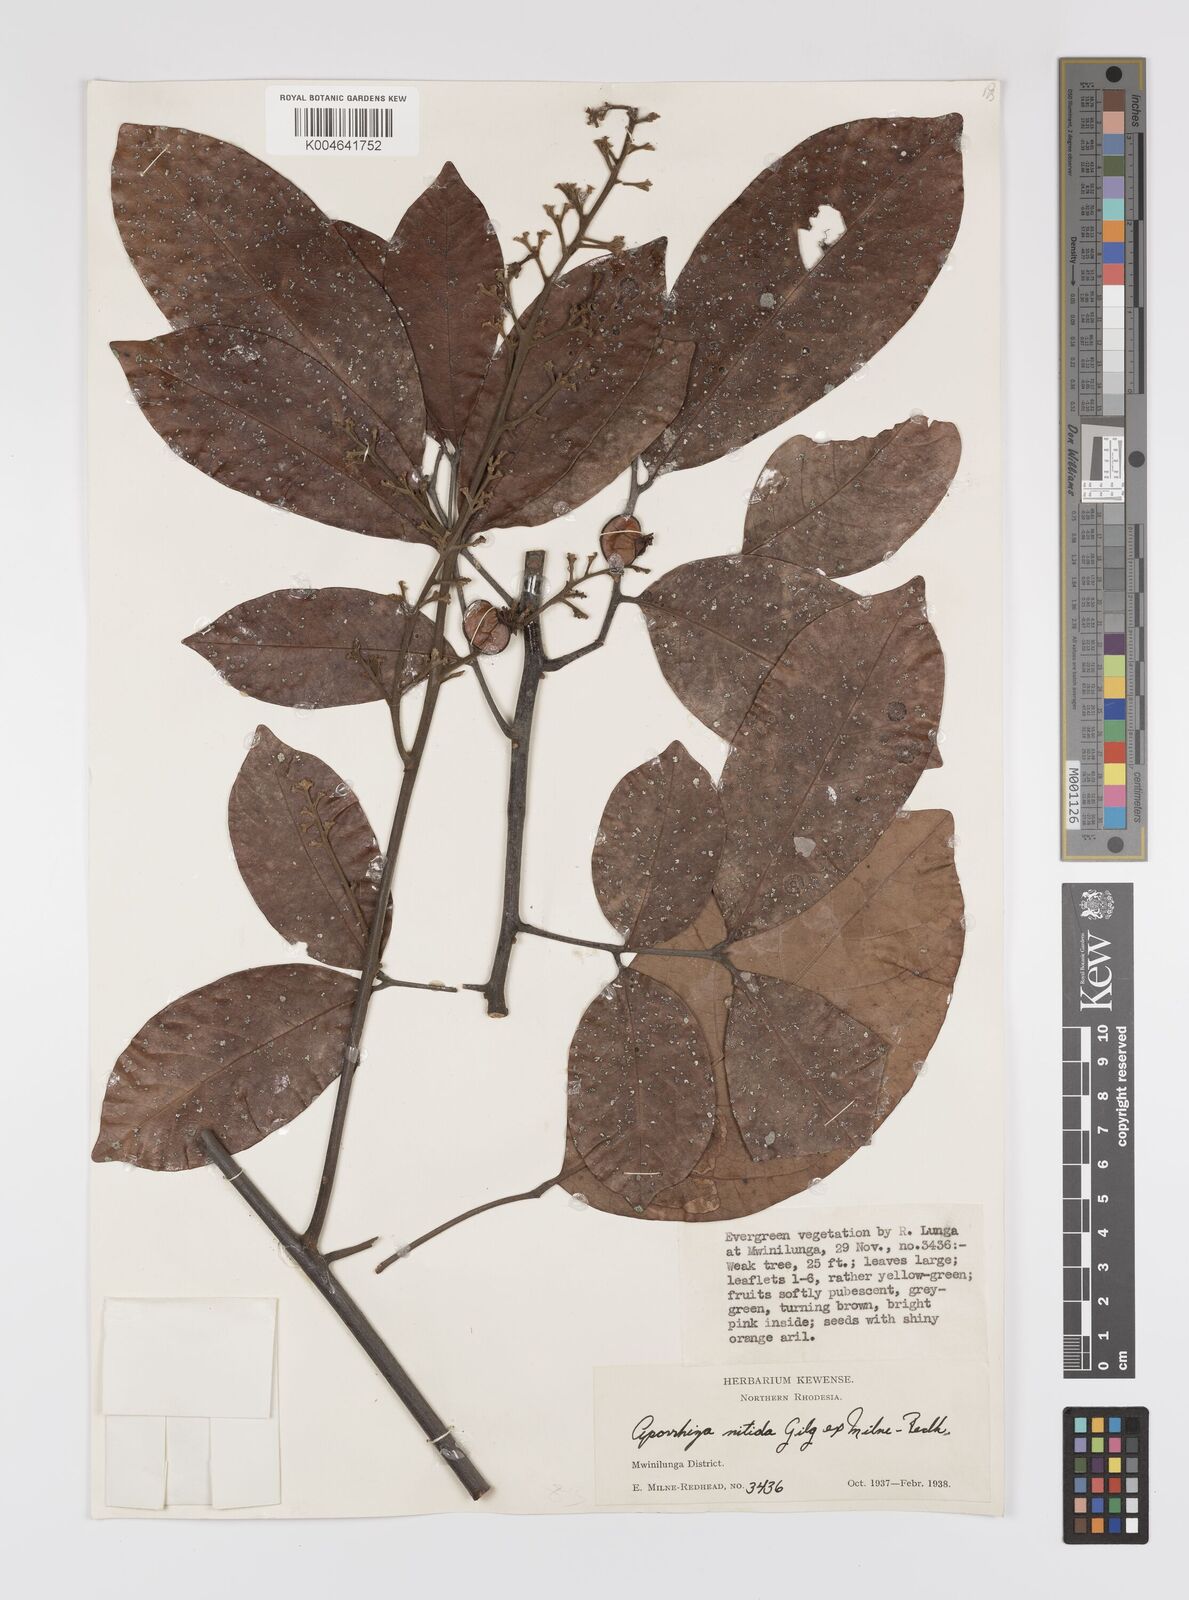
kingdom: Plantae
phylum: Tracheophyta
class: Magnoliopsida
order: Sapindales
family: Sapindaceae
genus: Aporrhiza
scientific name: Aporrhiza paniculata
